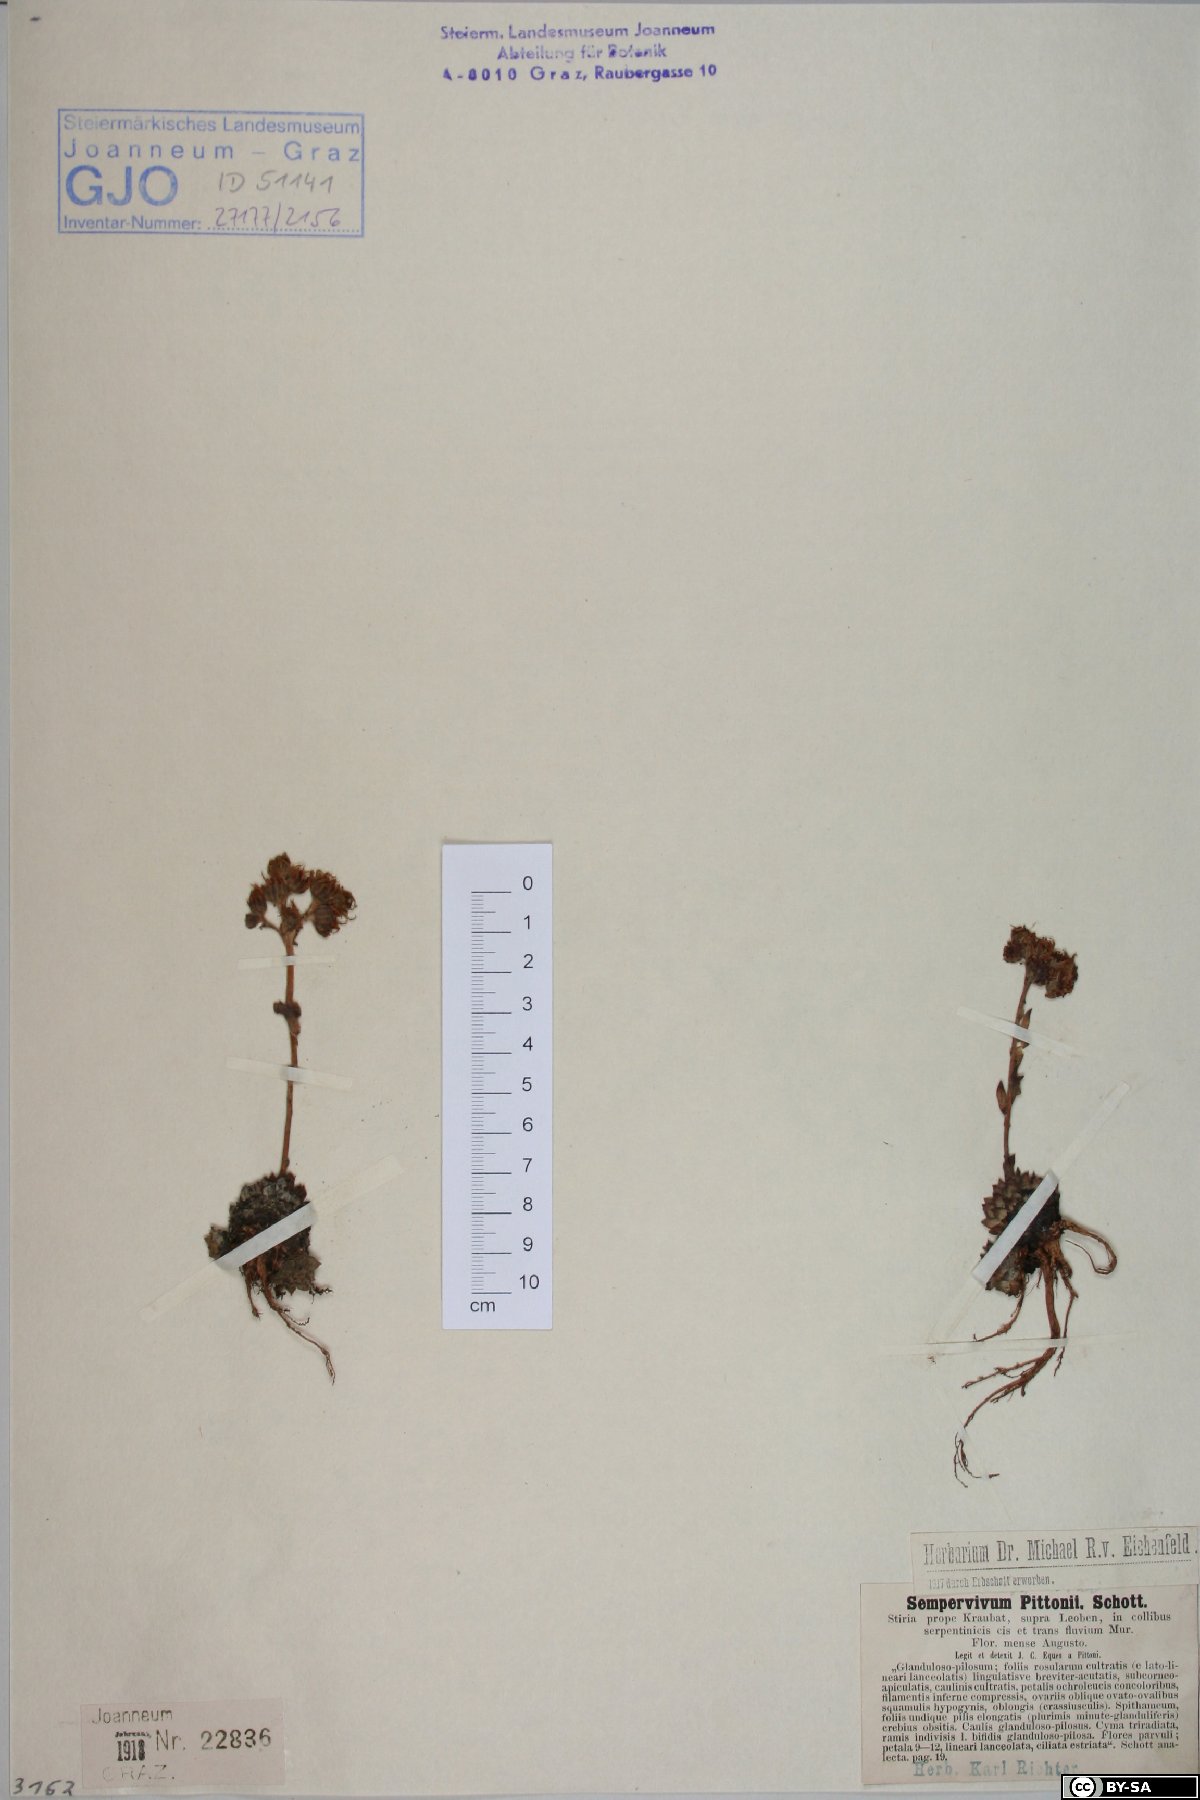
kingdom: Plantae
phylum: Tracheophyta
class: Magnoliopsida
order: Saxifragales
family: Crassulaceae
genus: Sempervivum
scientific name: Sempervivum pittonii
